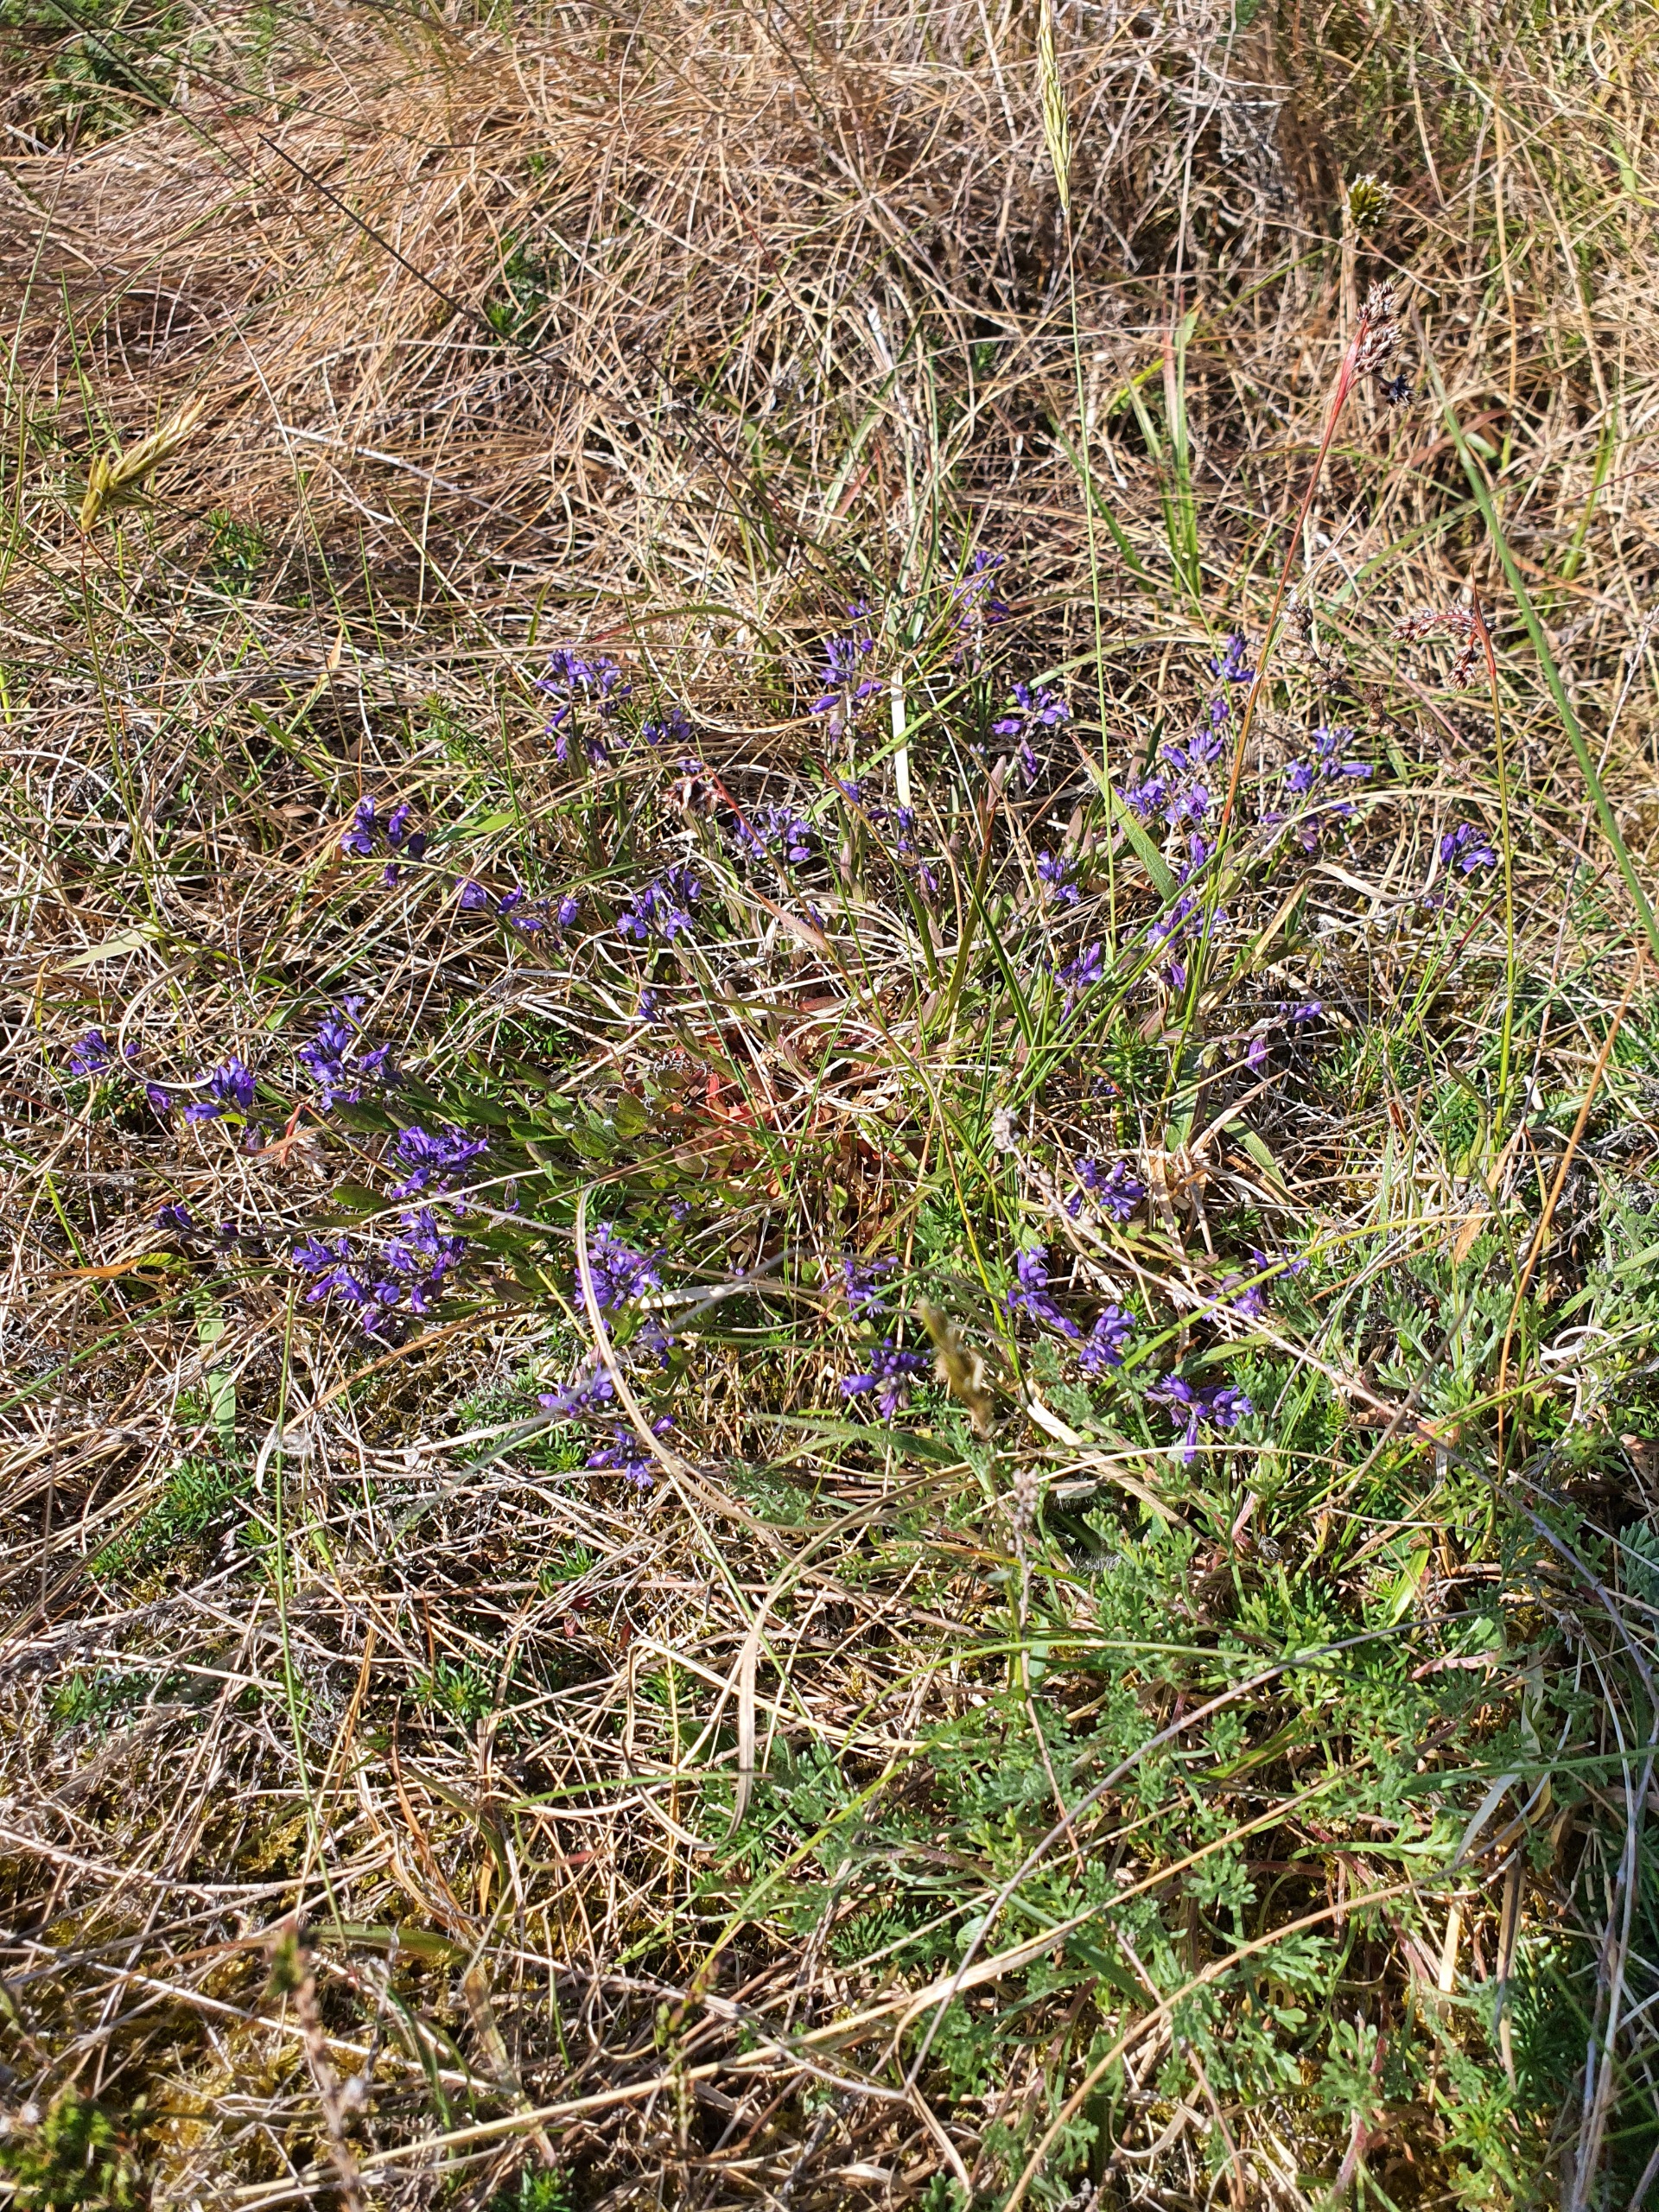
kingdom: Plantae
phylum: Tracheophyta
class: Magnoliopsida
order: Fabales
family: Polygalaceae
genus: Polygala
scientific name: Polygala vulgaris
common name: Almindelig mælkeurt
